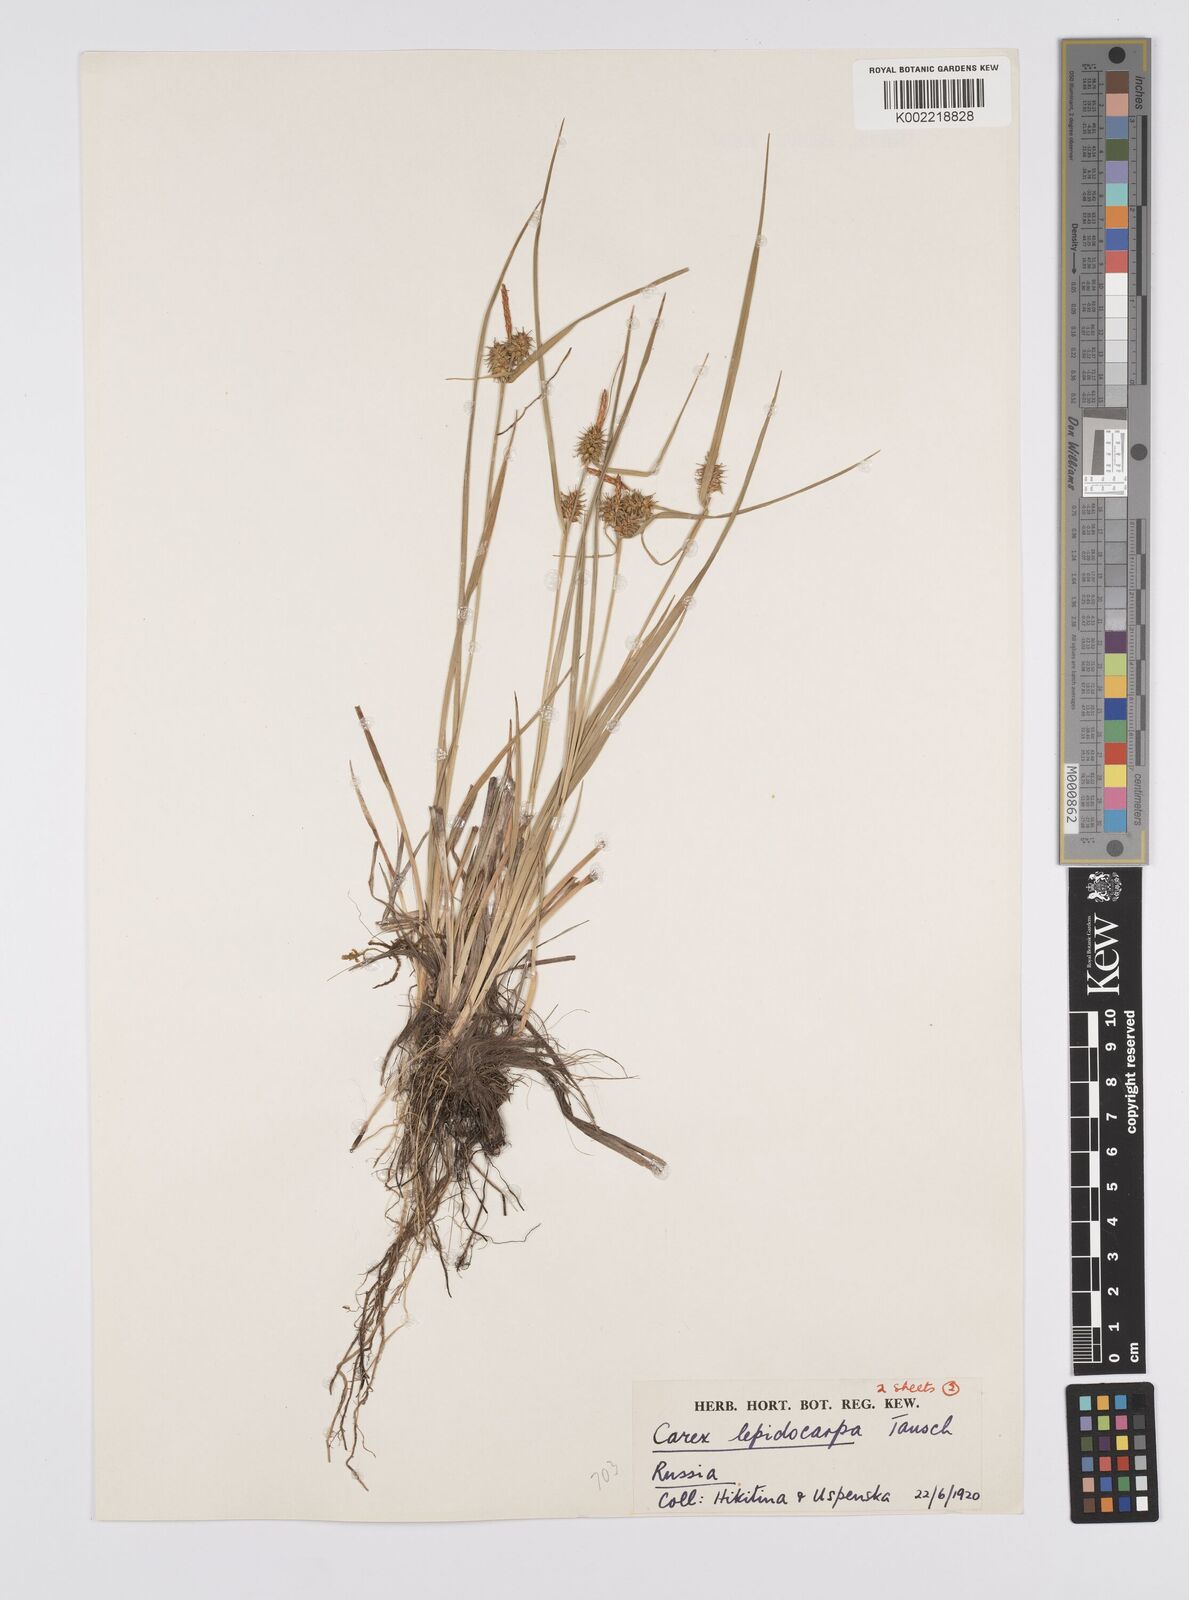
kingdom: Plantae
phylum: Tracheophyta
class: Liliopsida
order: Poales
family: Cyperaceae
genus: Carex
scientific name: Carex lepidocarpa
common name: Long-stalked yellow-sedge
